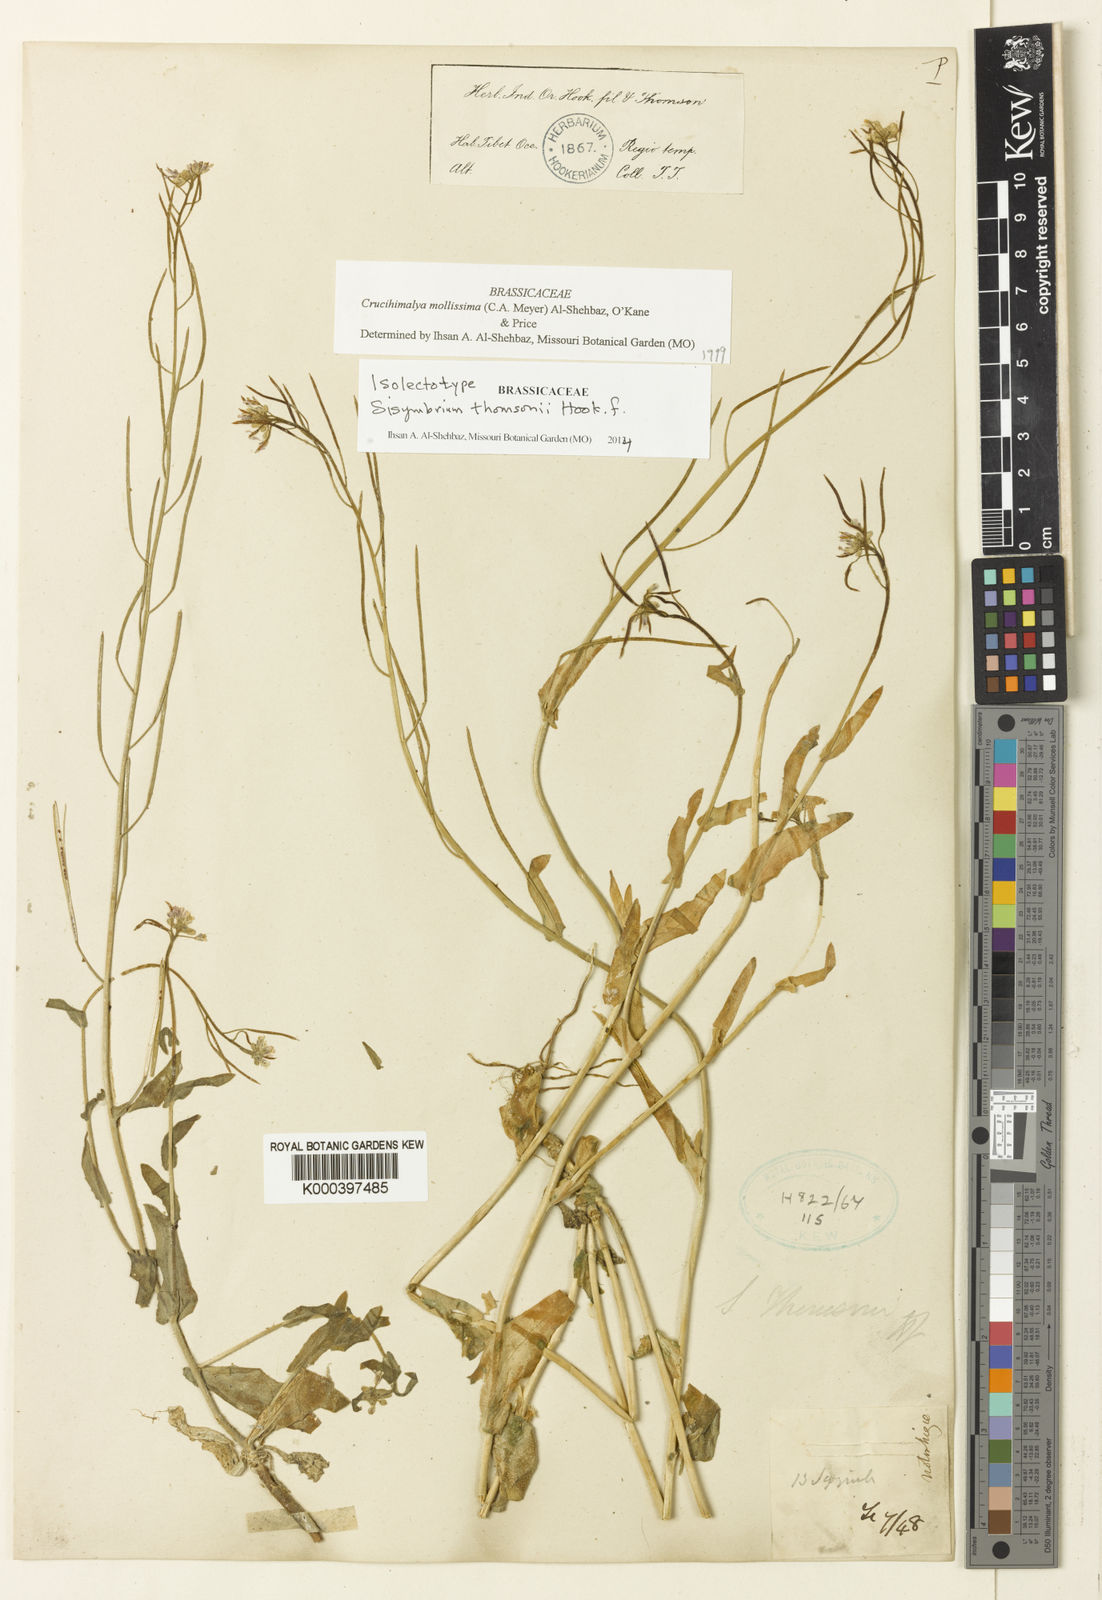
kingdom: Plantae
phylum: Tracheophyta
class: Magnoliopsida
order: Brassicales
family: Brassicaceae
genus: Crucihimalaya
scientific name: Crucihimalaya mollissima
